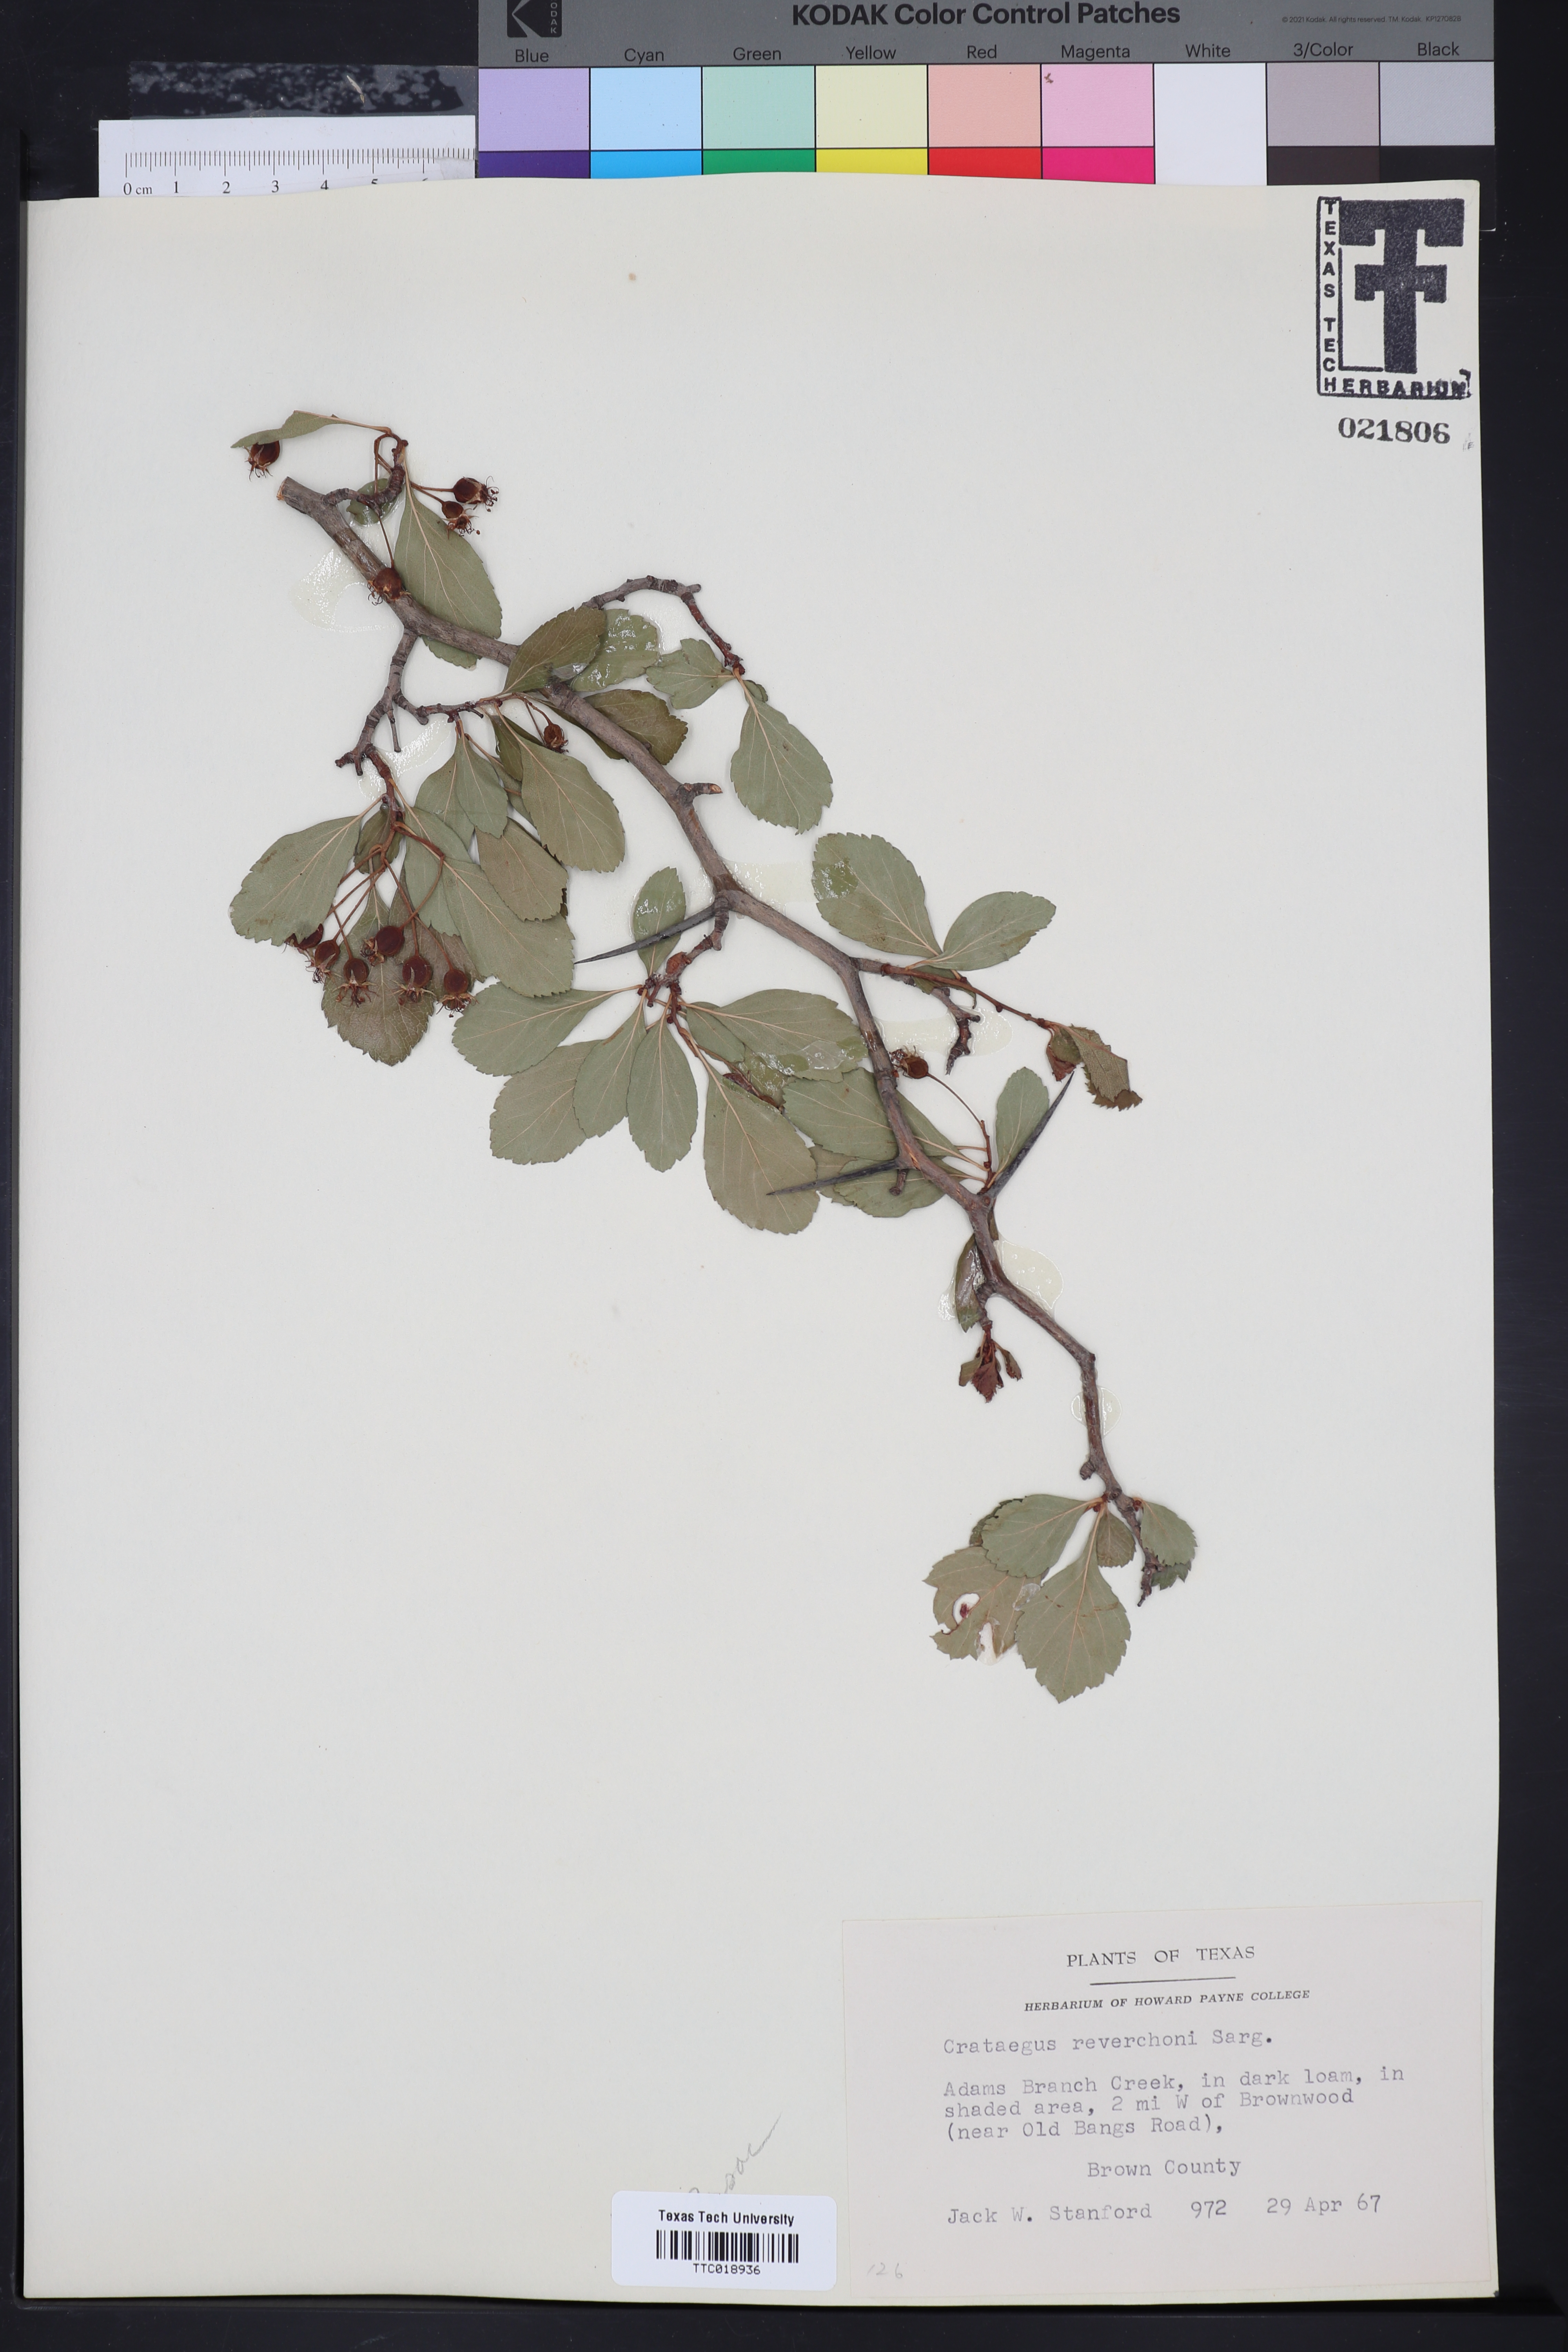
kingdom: Plantae
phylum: Tracheophyta
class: Magnoliopsida
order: Rosales
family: Rosaceae
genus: Crataegus
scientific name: Crataegus reverchonii
